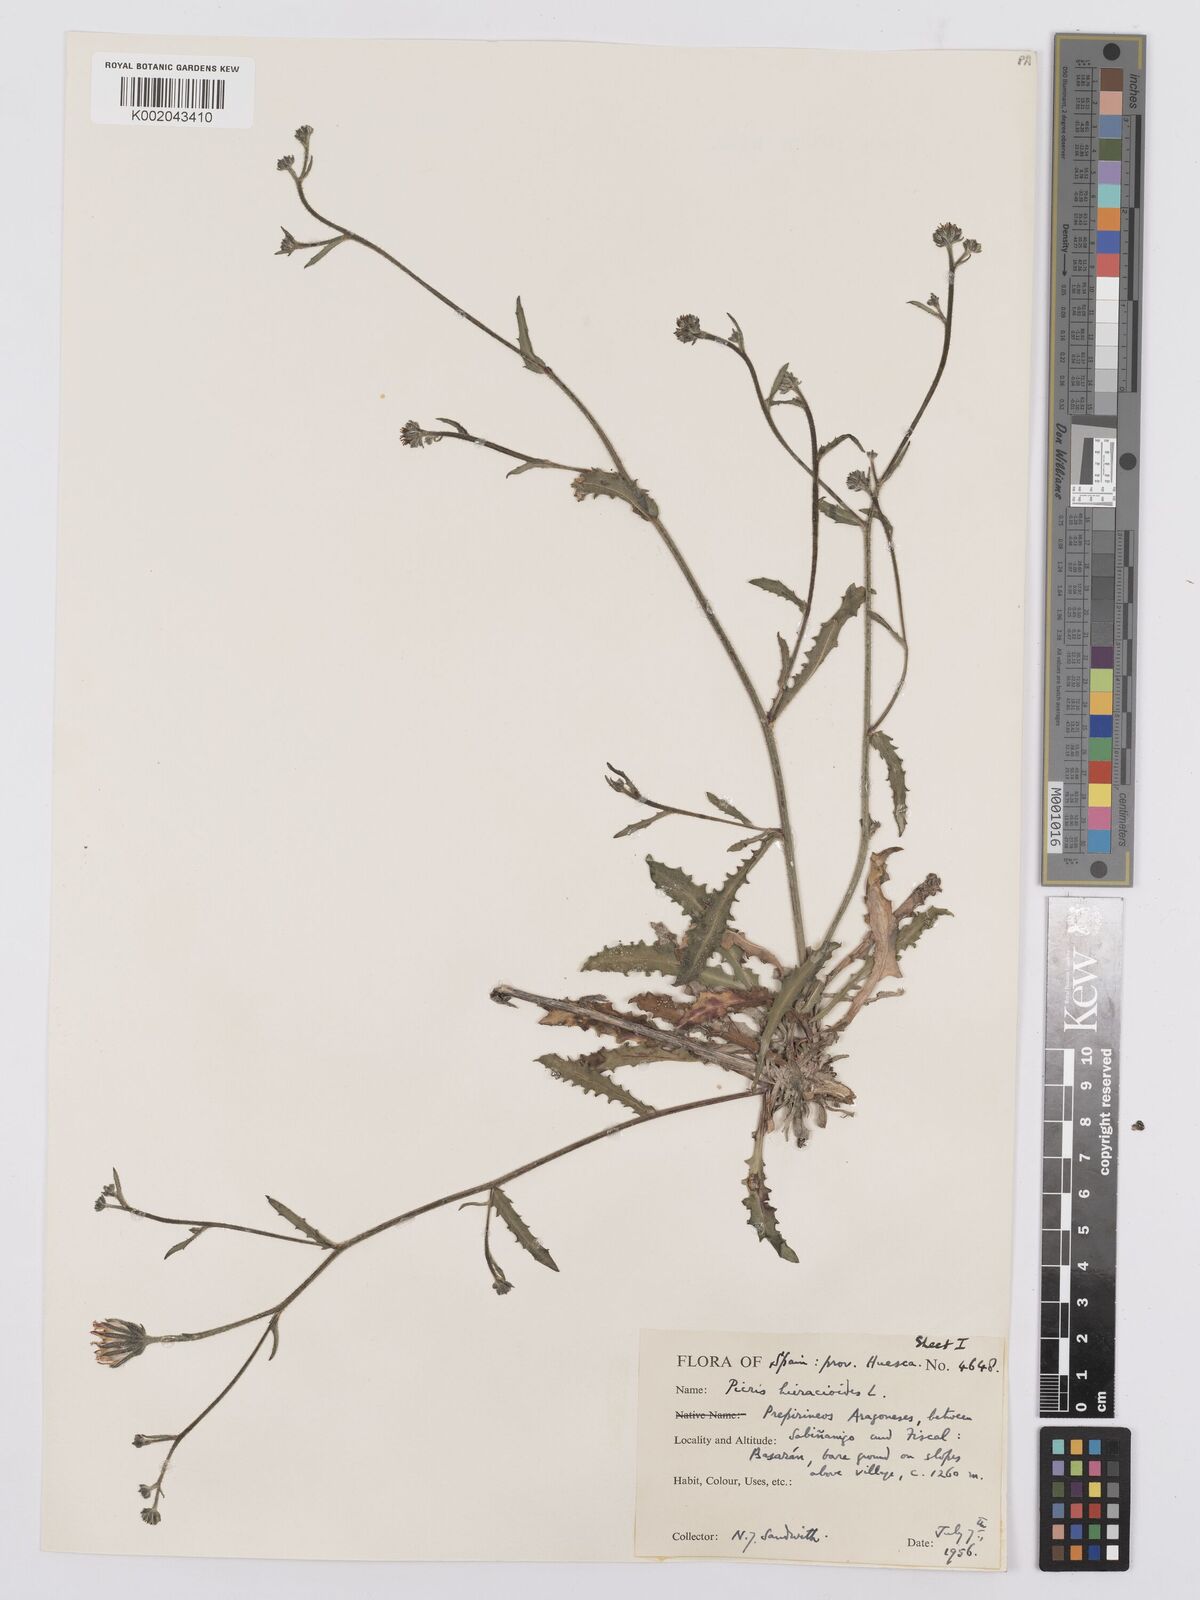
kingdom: Plantae
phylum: Tracheophyta
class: Magnoliopsida
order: Asterales
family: Asteraceae
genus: Picris
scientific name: Picris hieracioides
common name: Hawkweed oxtongue
